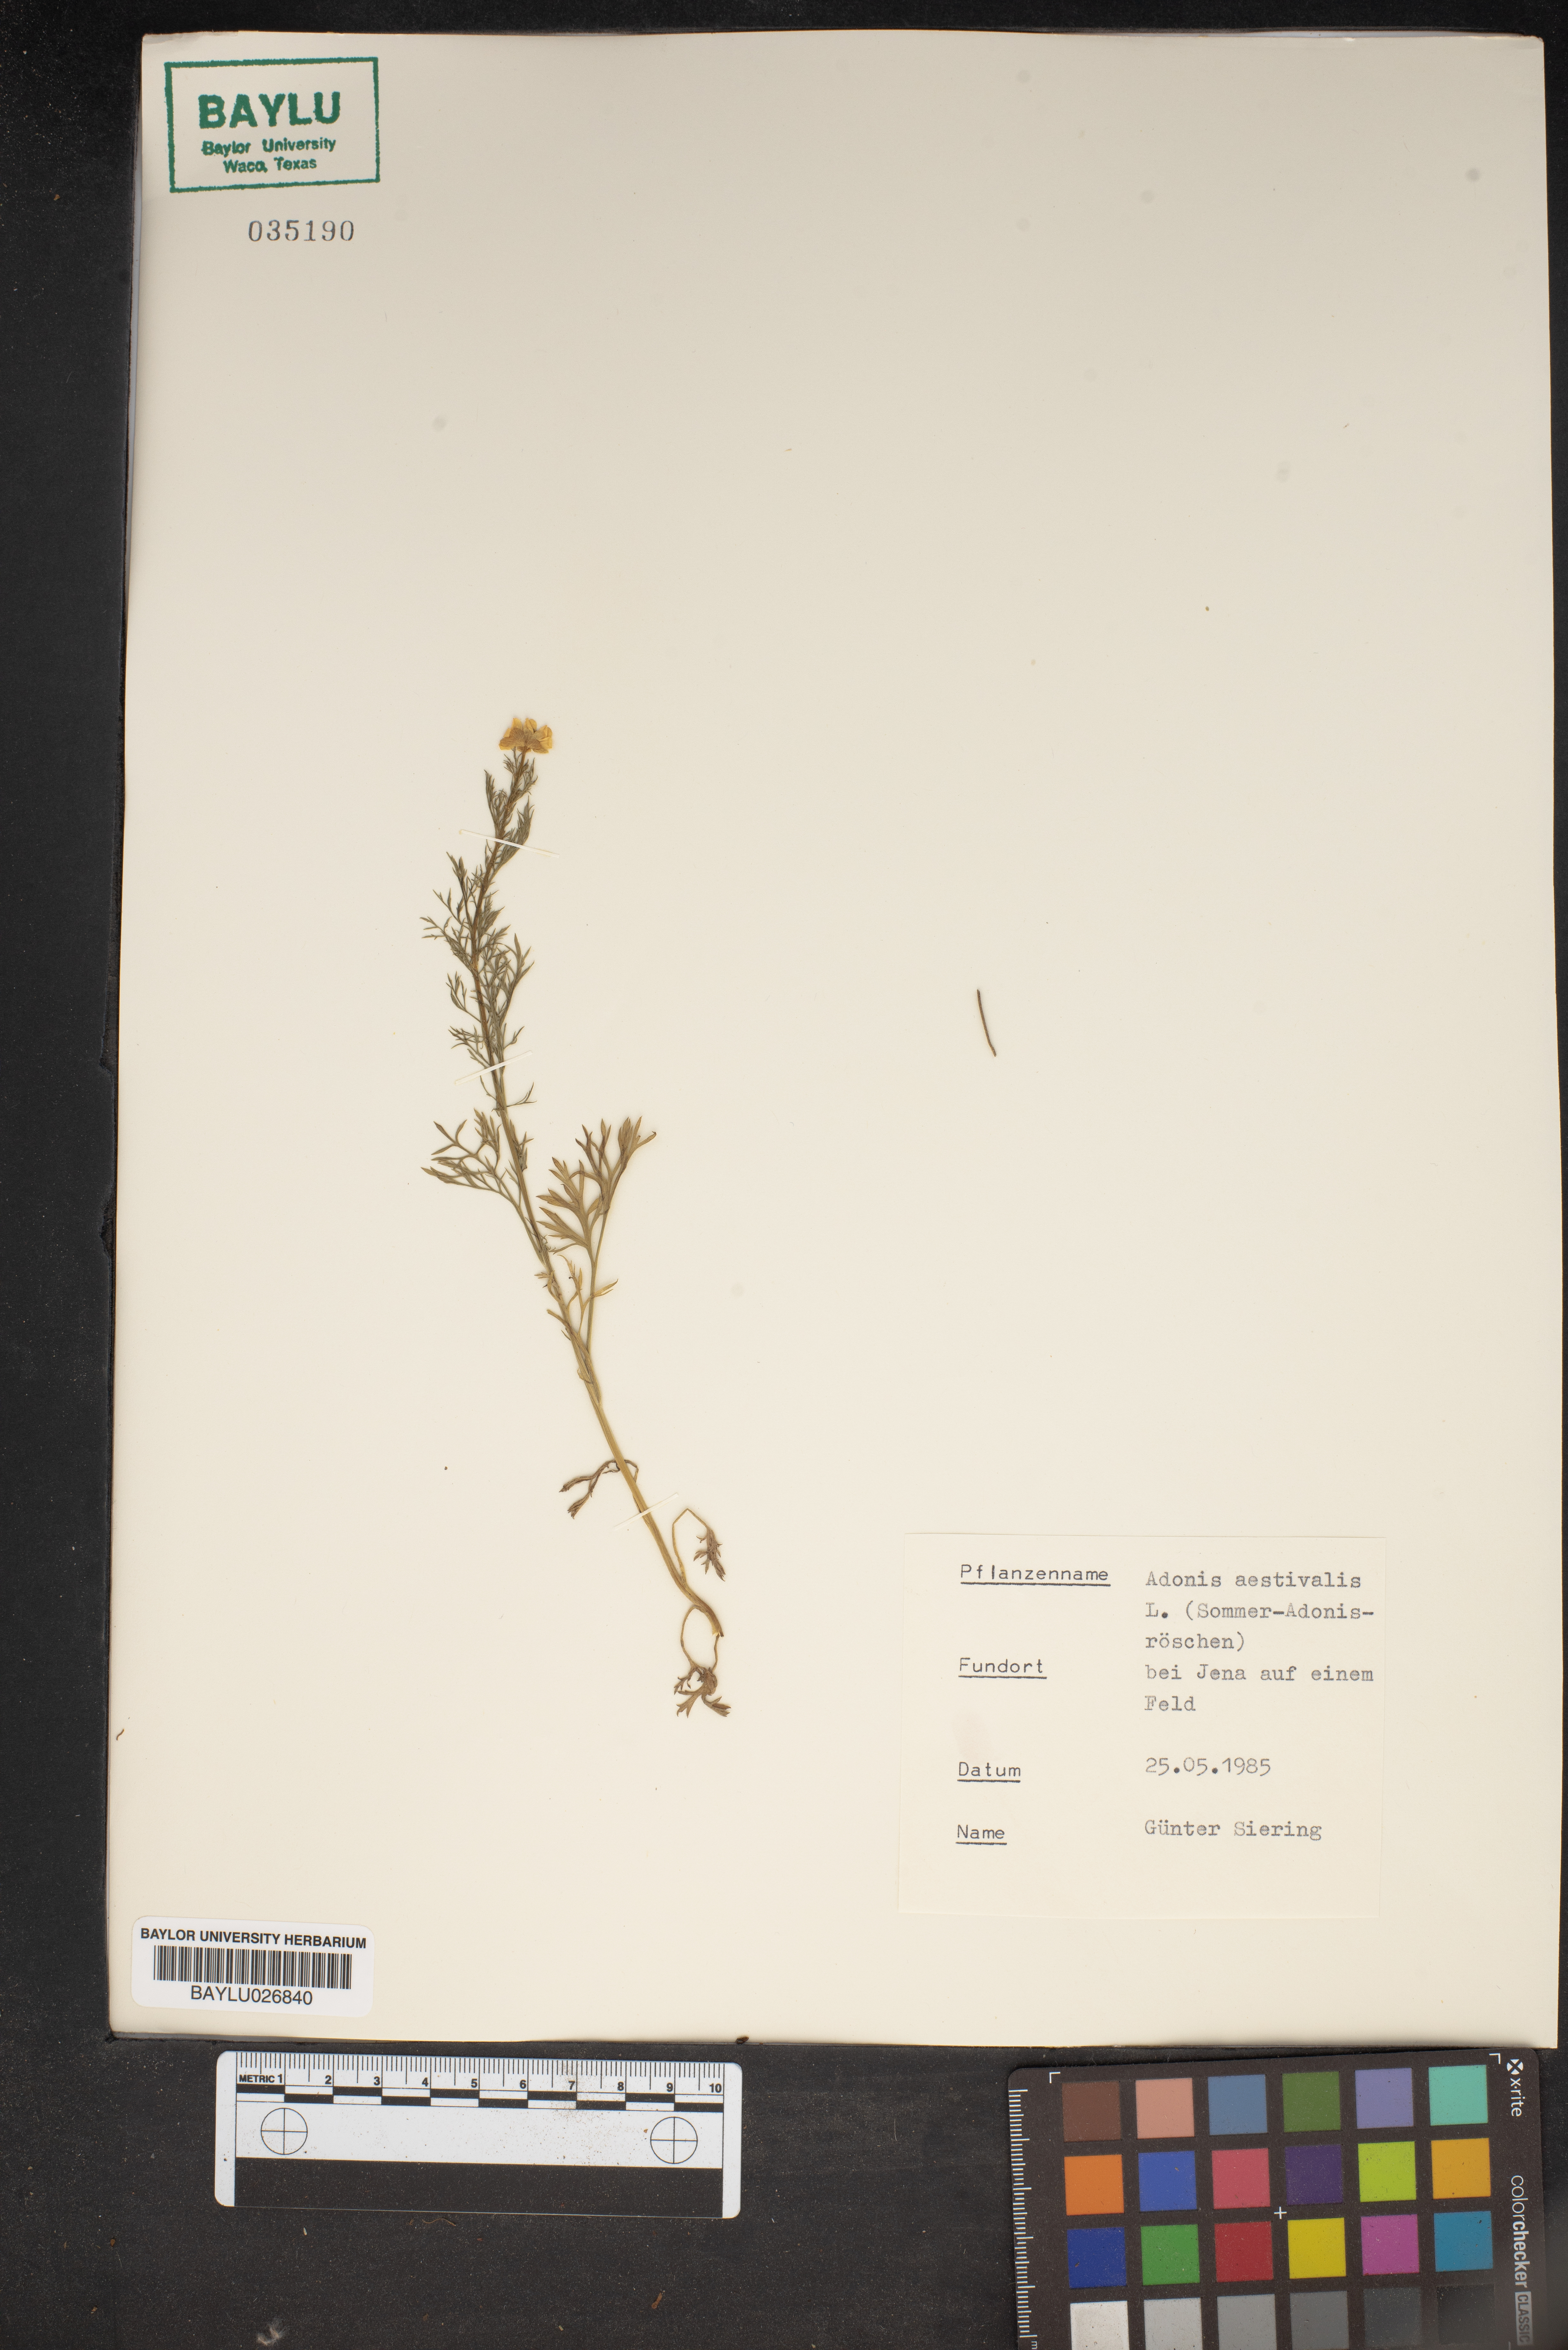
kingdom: Plantae
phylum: Tracheophyta
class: Magnoliopsida
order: Ranunculales
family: Ranunculaceae
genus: Adonis
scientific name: Adonis aestivalis
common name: Summer pheasant's-eye
